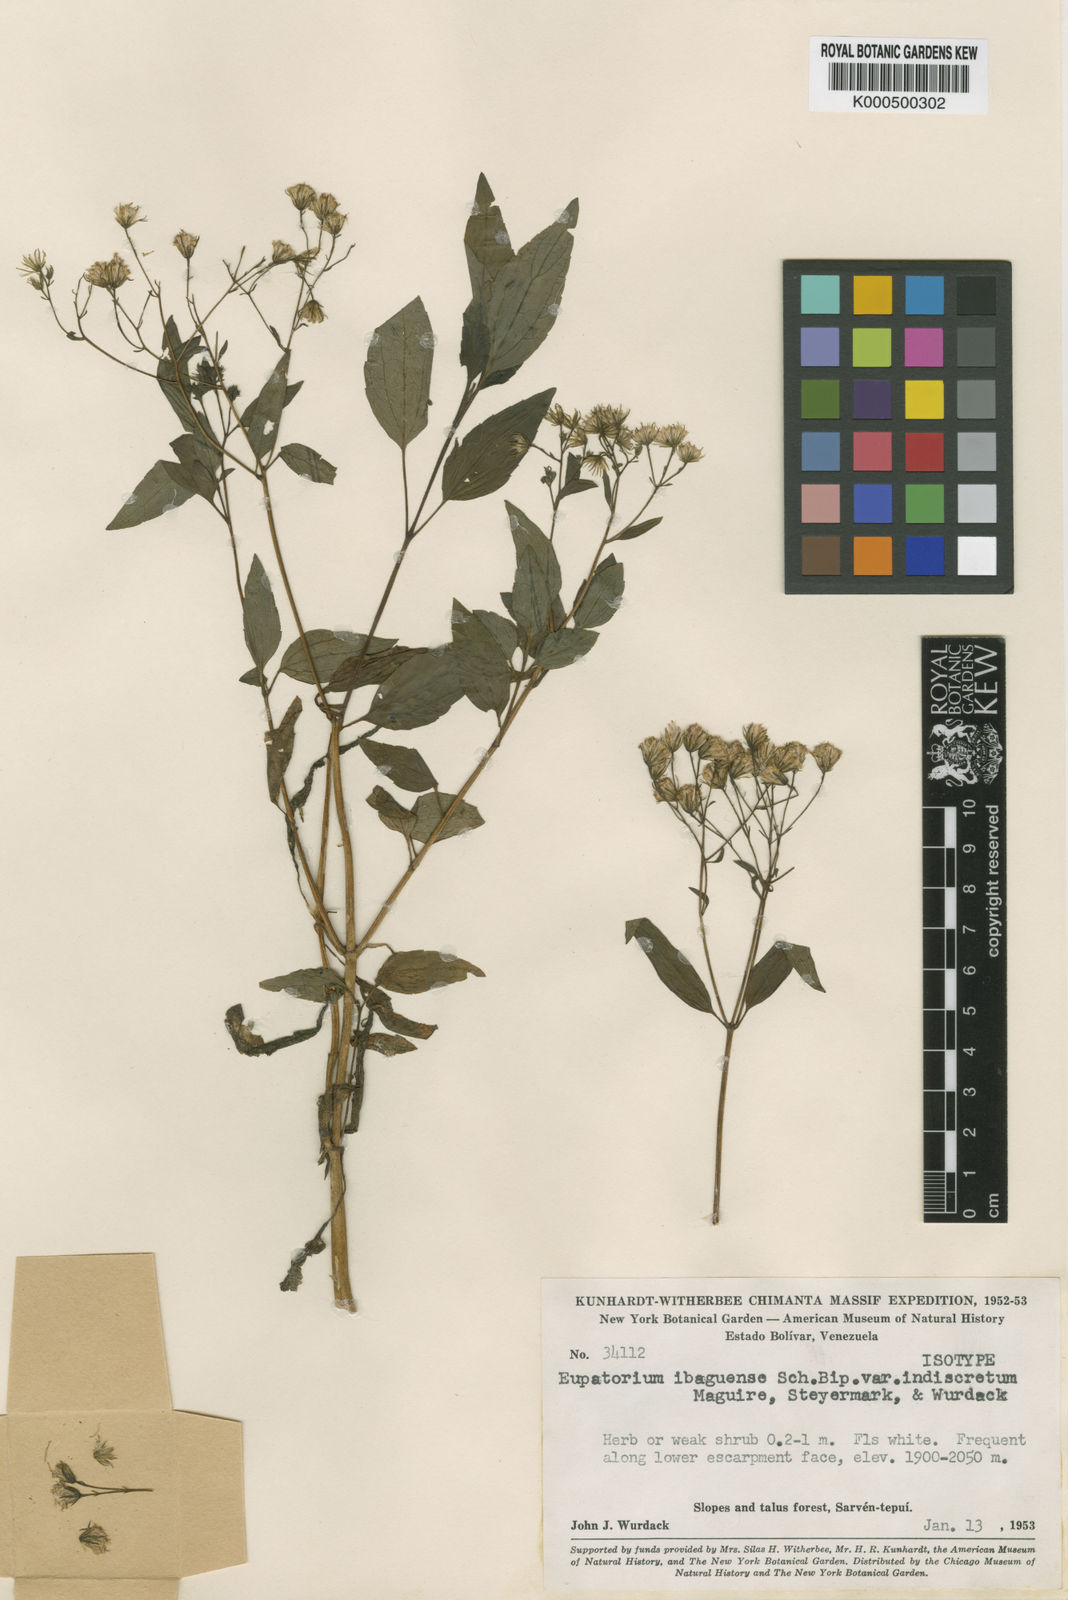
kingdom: Plantae
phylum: Tracheophyta
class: Magnoliopsida
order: Asterales
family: Asteraceae
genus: Ageratina
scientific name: Ageratina ibaguensis
